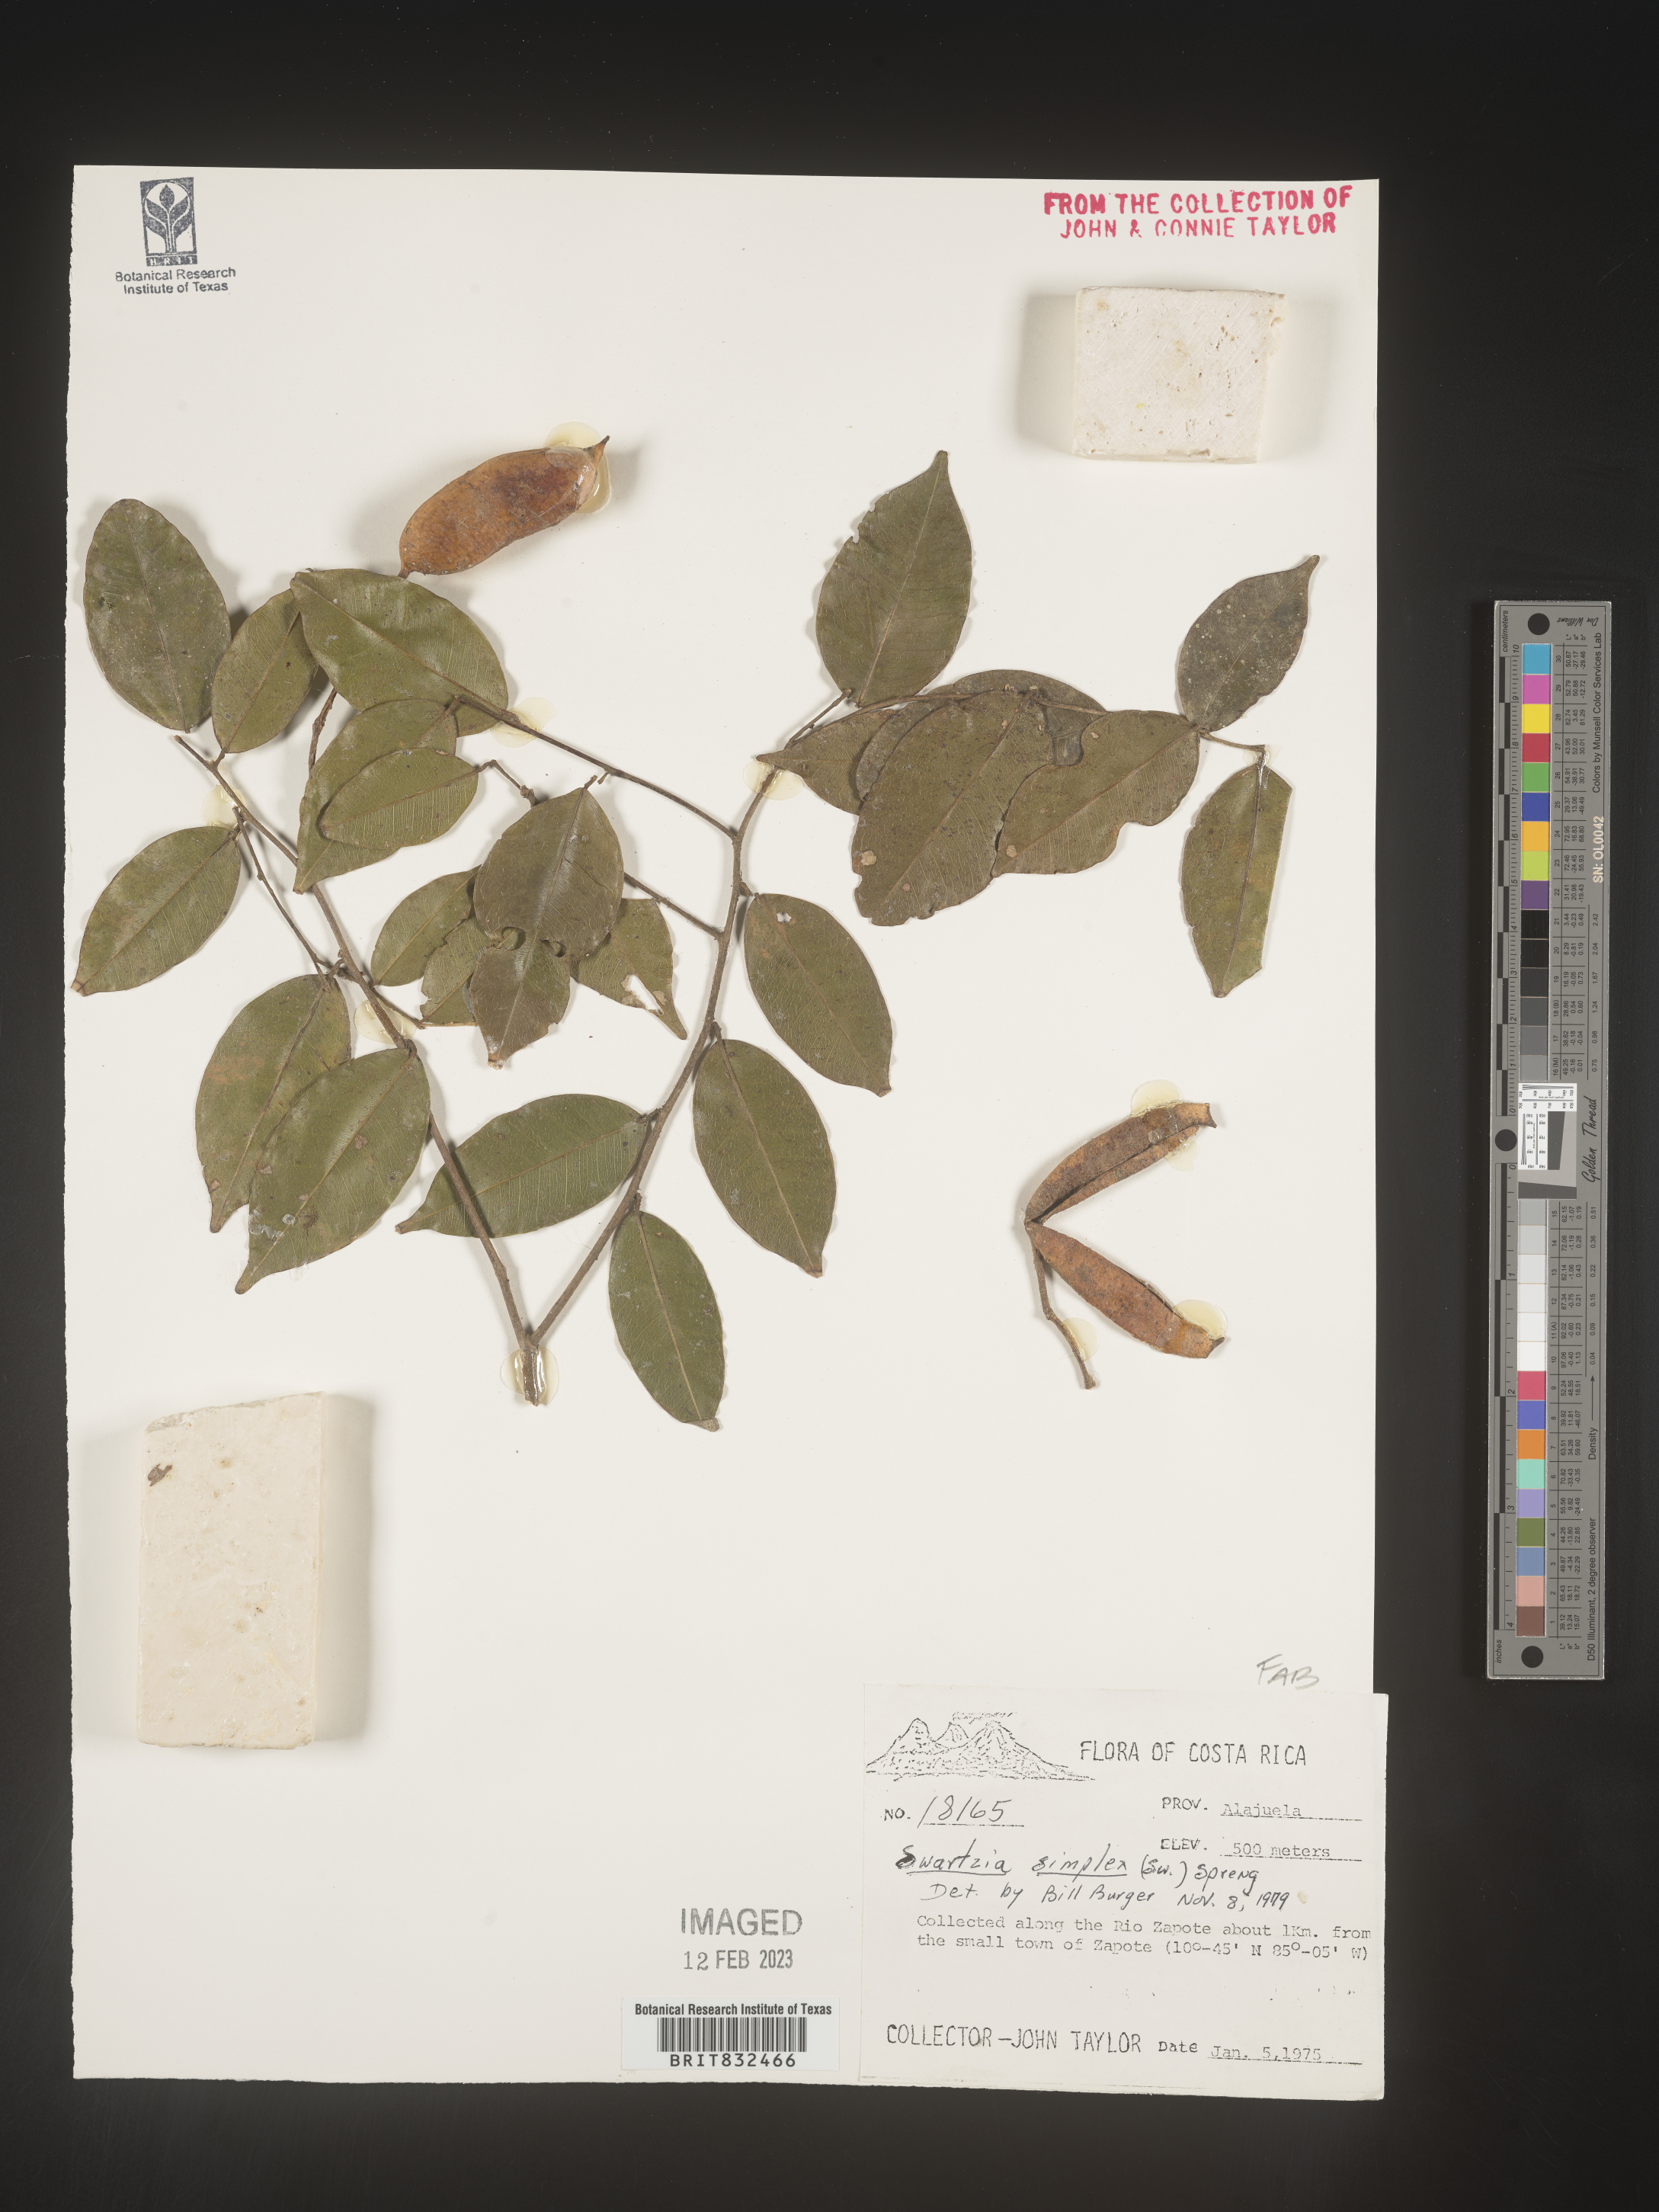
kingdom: Plantae
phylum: Tracheophyta
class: Magnoliopsida
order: Fabales
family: Fabaceae
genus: Swartzia
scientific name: Swartzia
